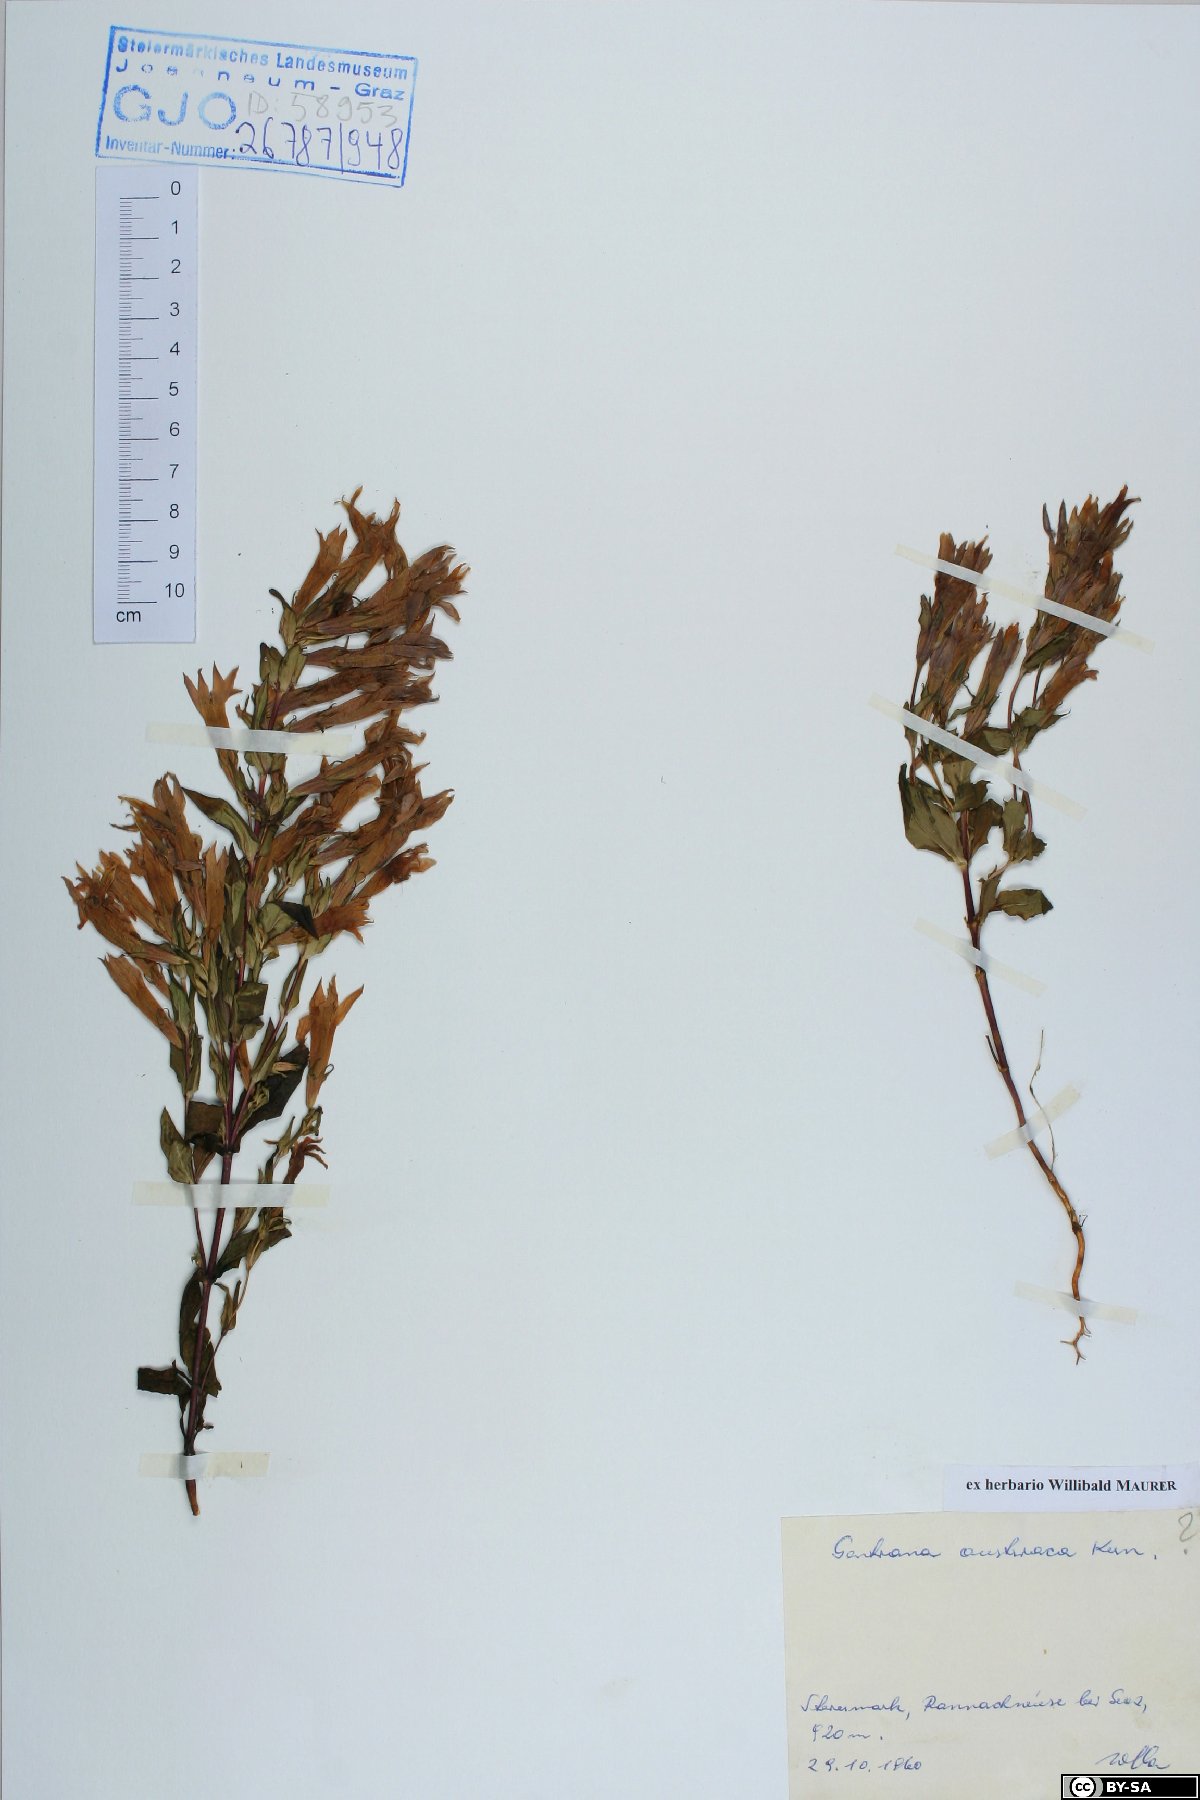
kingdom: Plantae
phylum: Tracheophyta
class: Magnoliopsida
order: Gentianales
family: Gentianaceae
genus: Gentianella
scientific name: Gentianella austriaca
